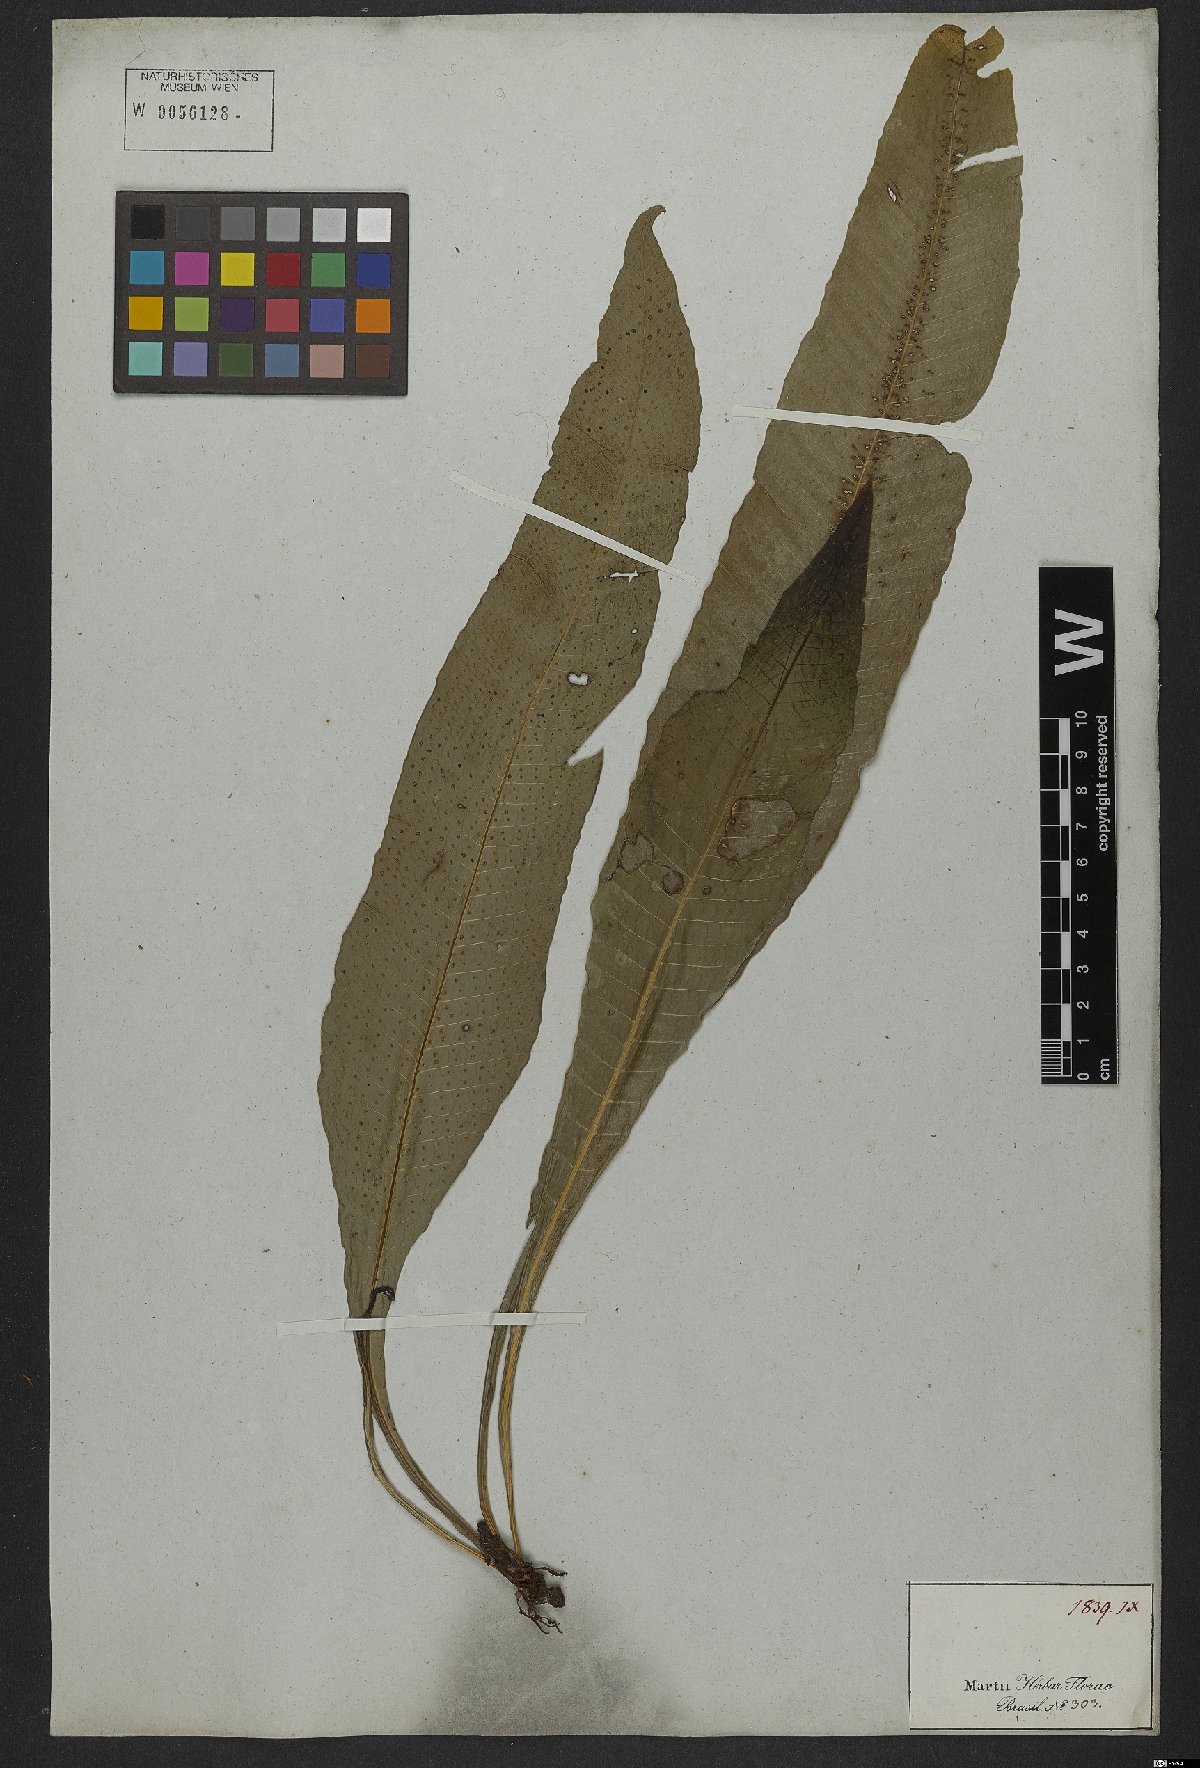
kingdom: Plantae
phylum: Tracheophyta
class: Polypodiopsida
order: Polypodiales
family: Polypodiaceae
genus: Campyloneurum
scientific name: Campyloneurum phyllitidis
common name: Cow-tongue fern
